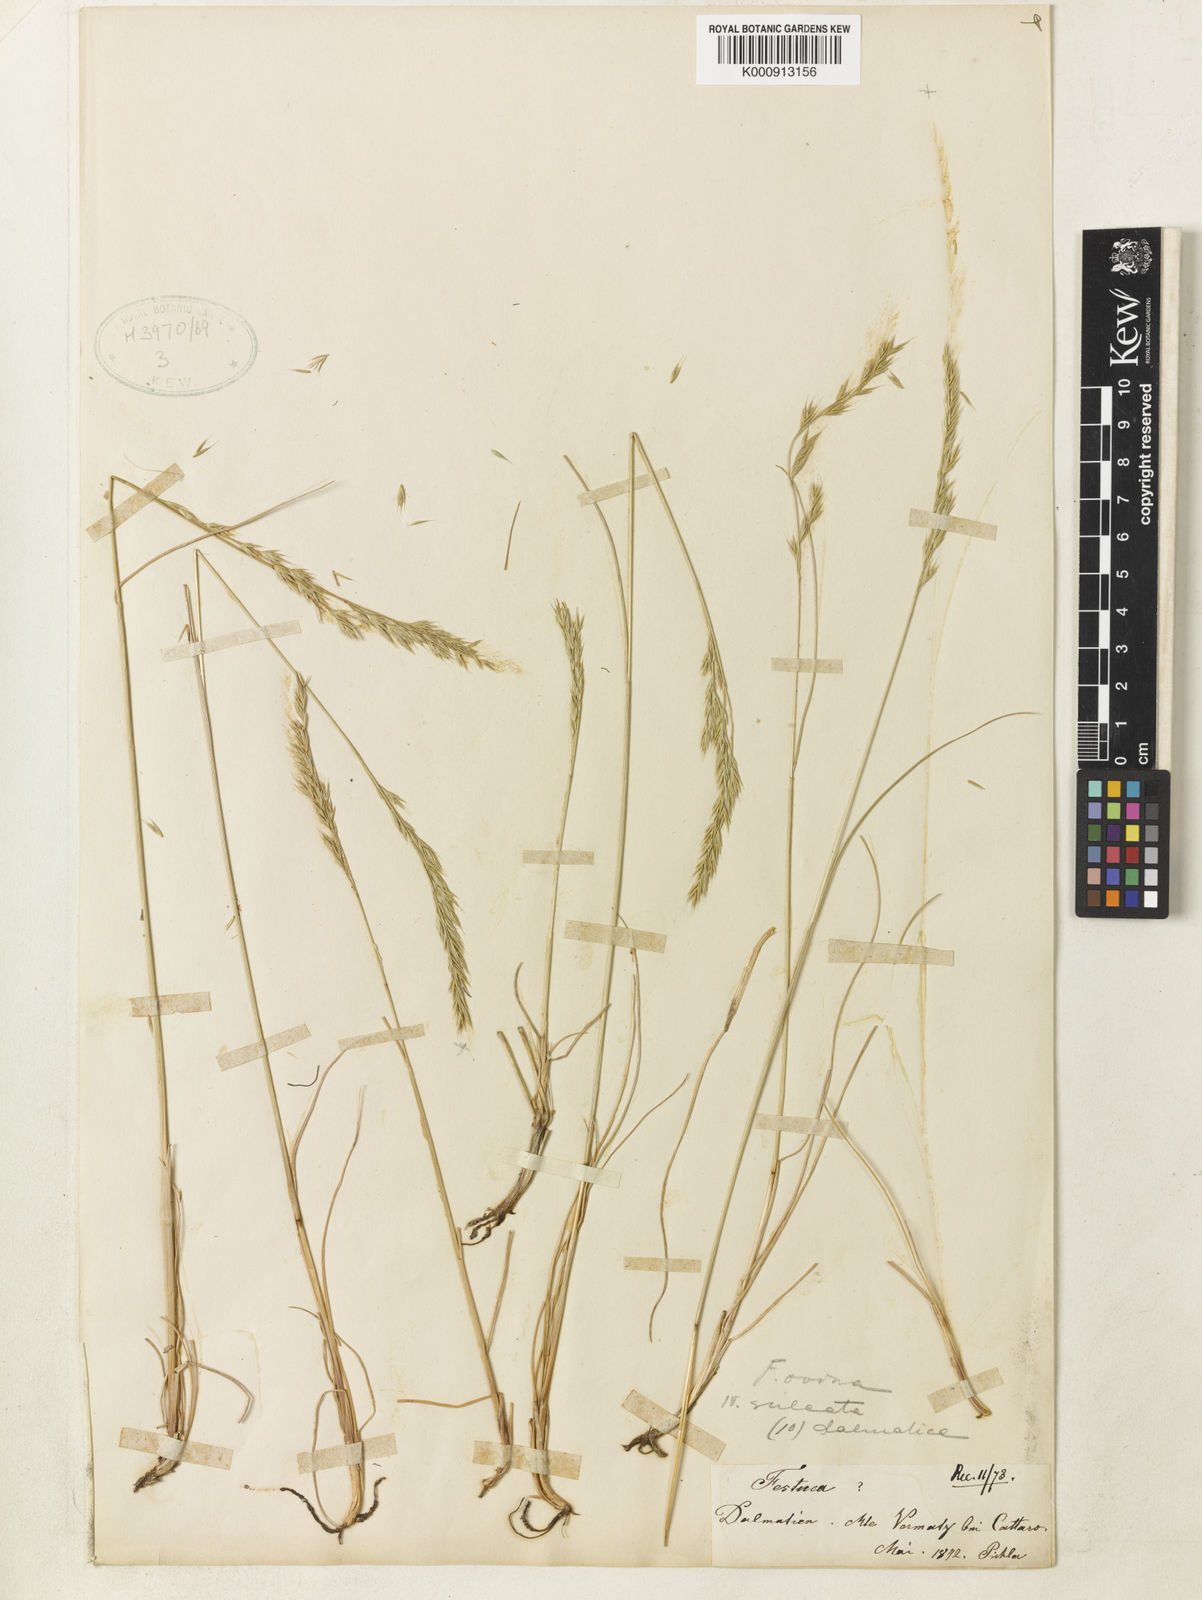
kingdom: Plantae
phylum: Tracheophyta
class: Liliopsida
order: Poales
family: Poaceae
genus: Festuca
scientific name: Festuca dalmatica
